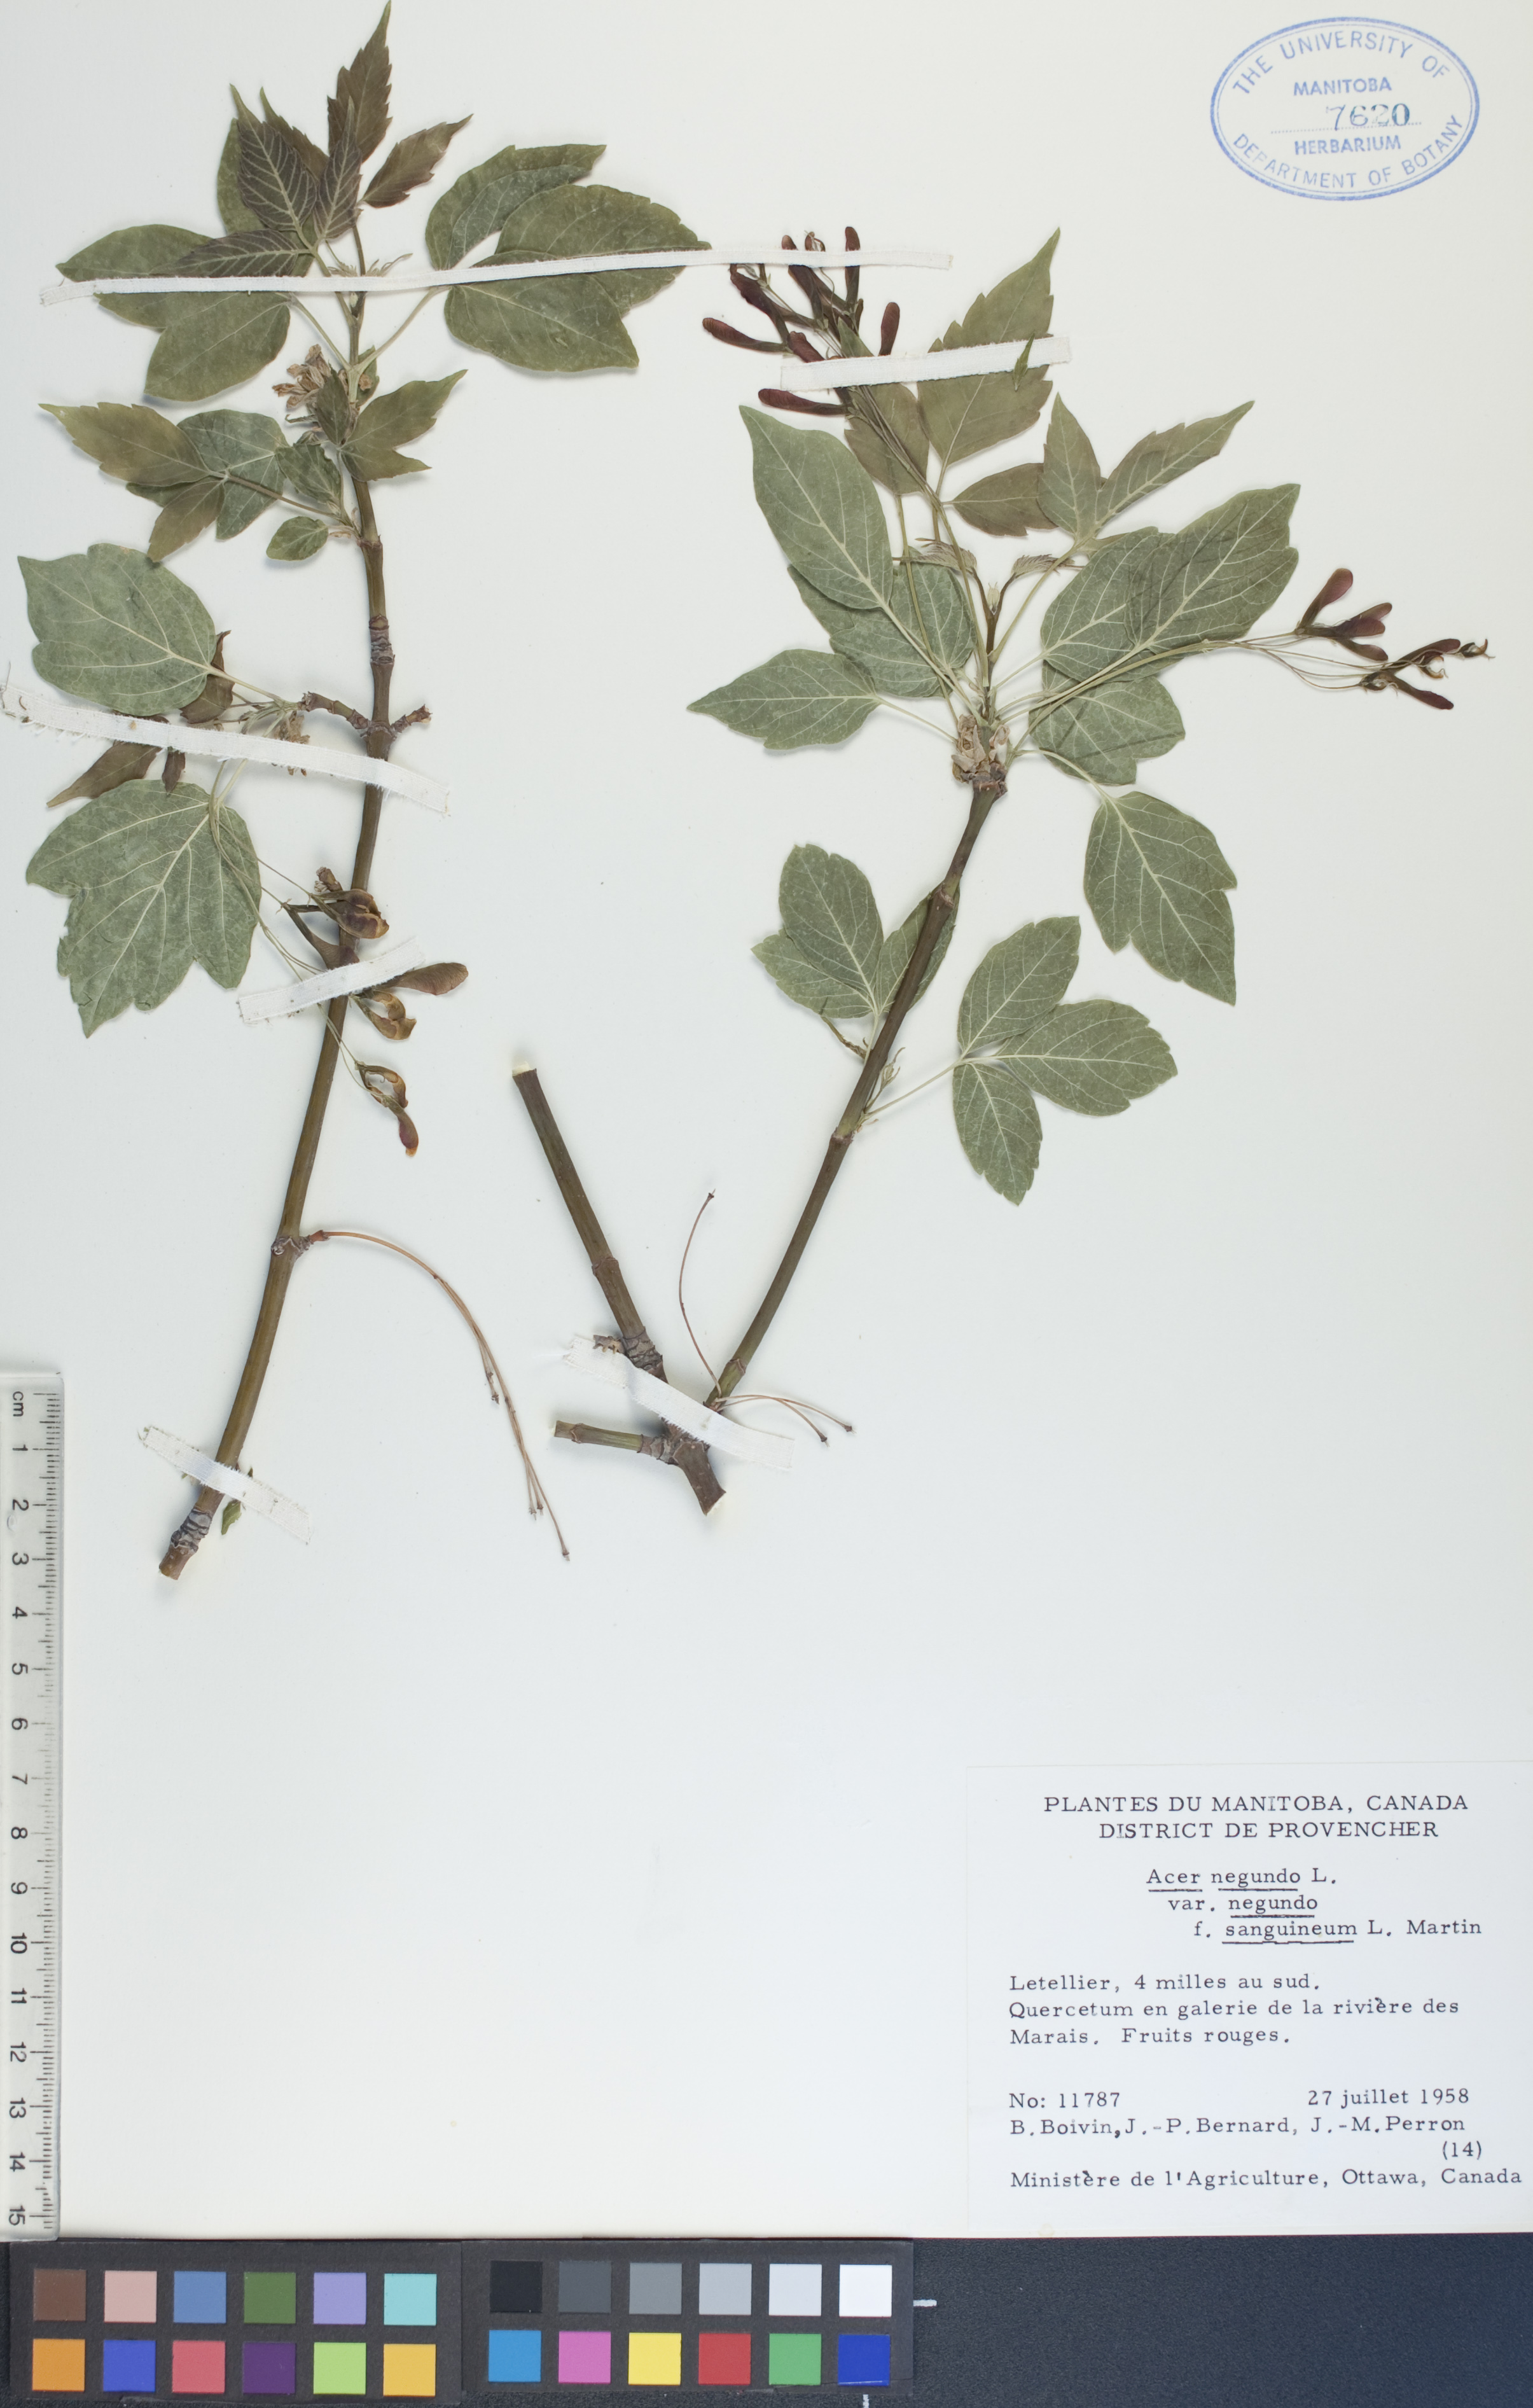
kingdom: Plantae
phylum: Tracheophyta
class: Magnoliopsida
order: Sapindales
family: Sapindaceae
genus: Acer
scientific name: Acer negundo
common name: Ashleaf maple
